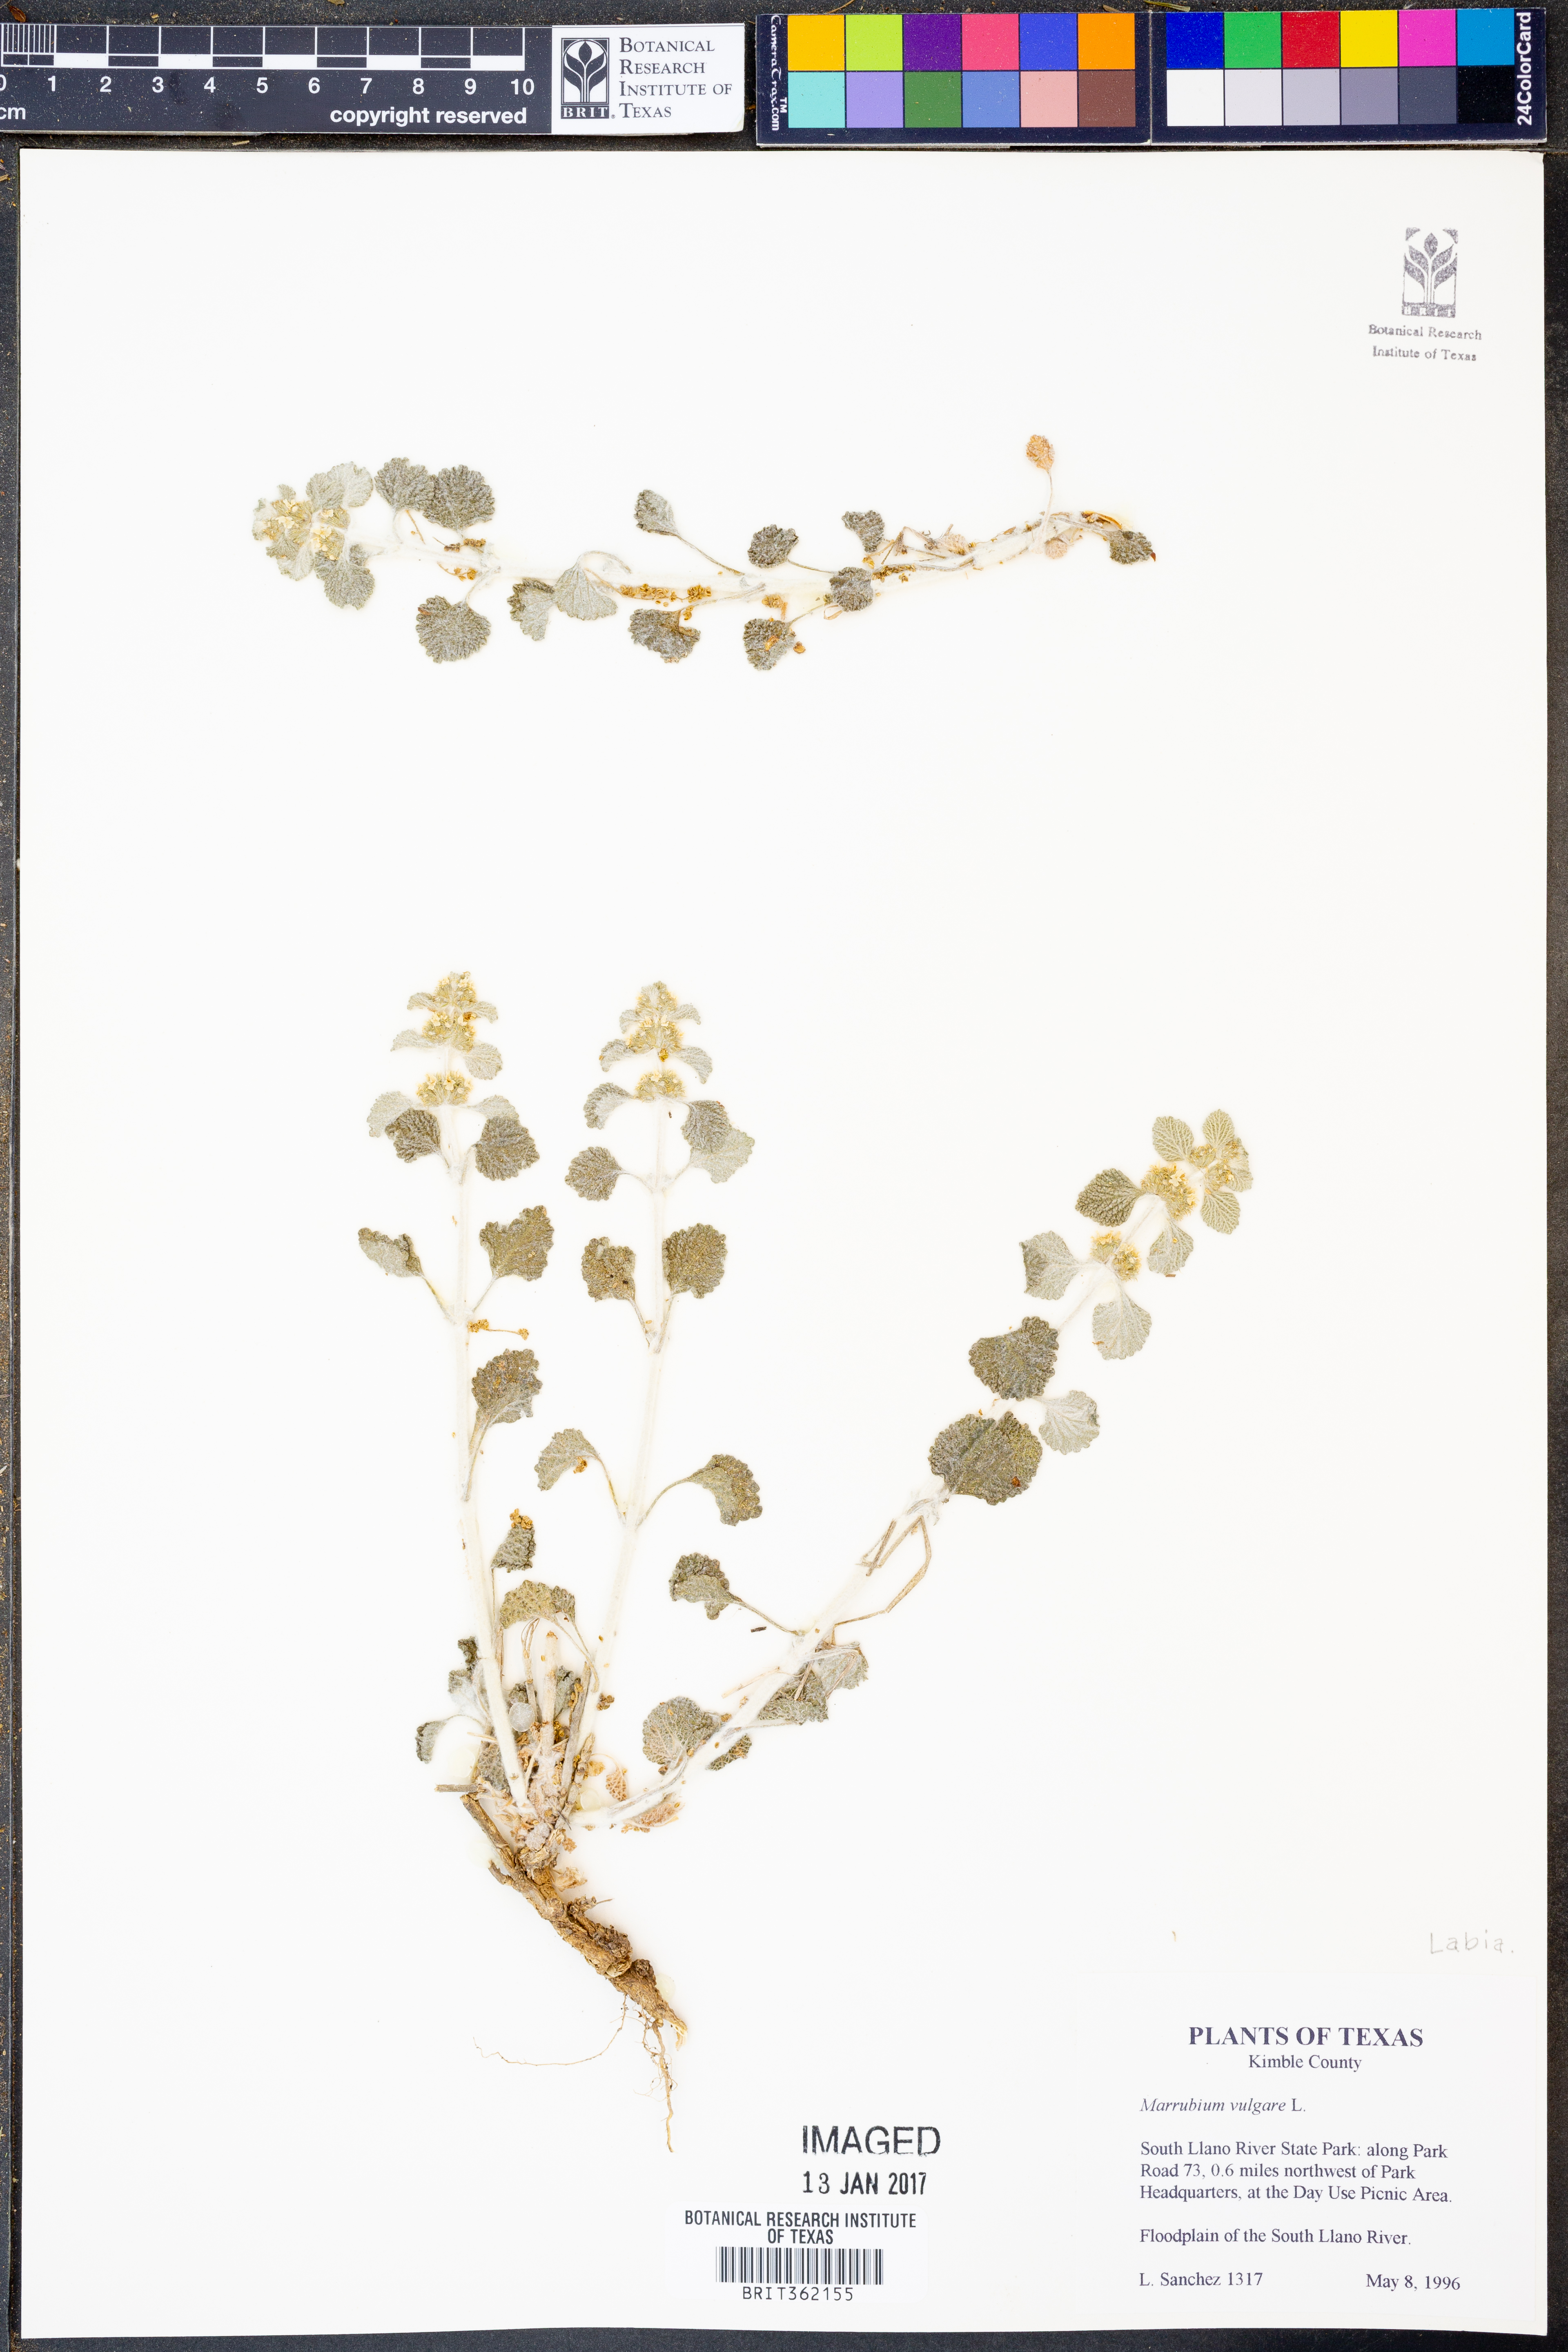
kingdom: Plantae
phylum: Tracheophyta
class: Magnoliopsida
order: Lamiales
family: Lamiaceae
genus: Marrubium
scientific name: Marrubium vulgare
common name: Horehound
